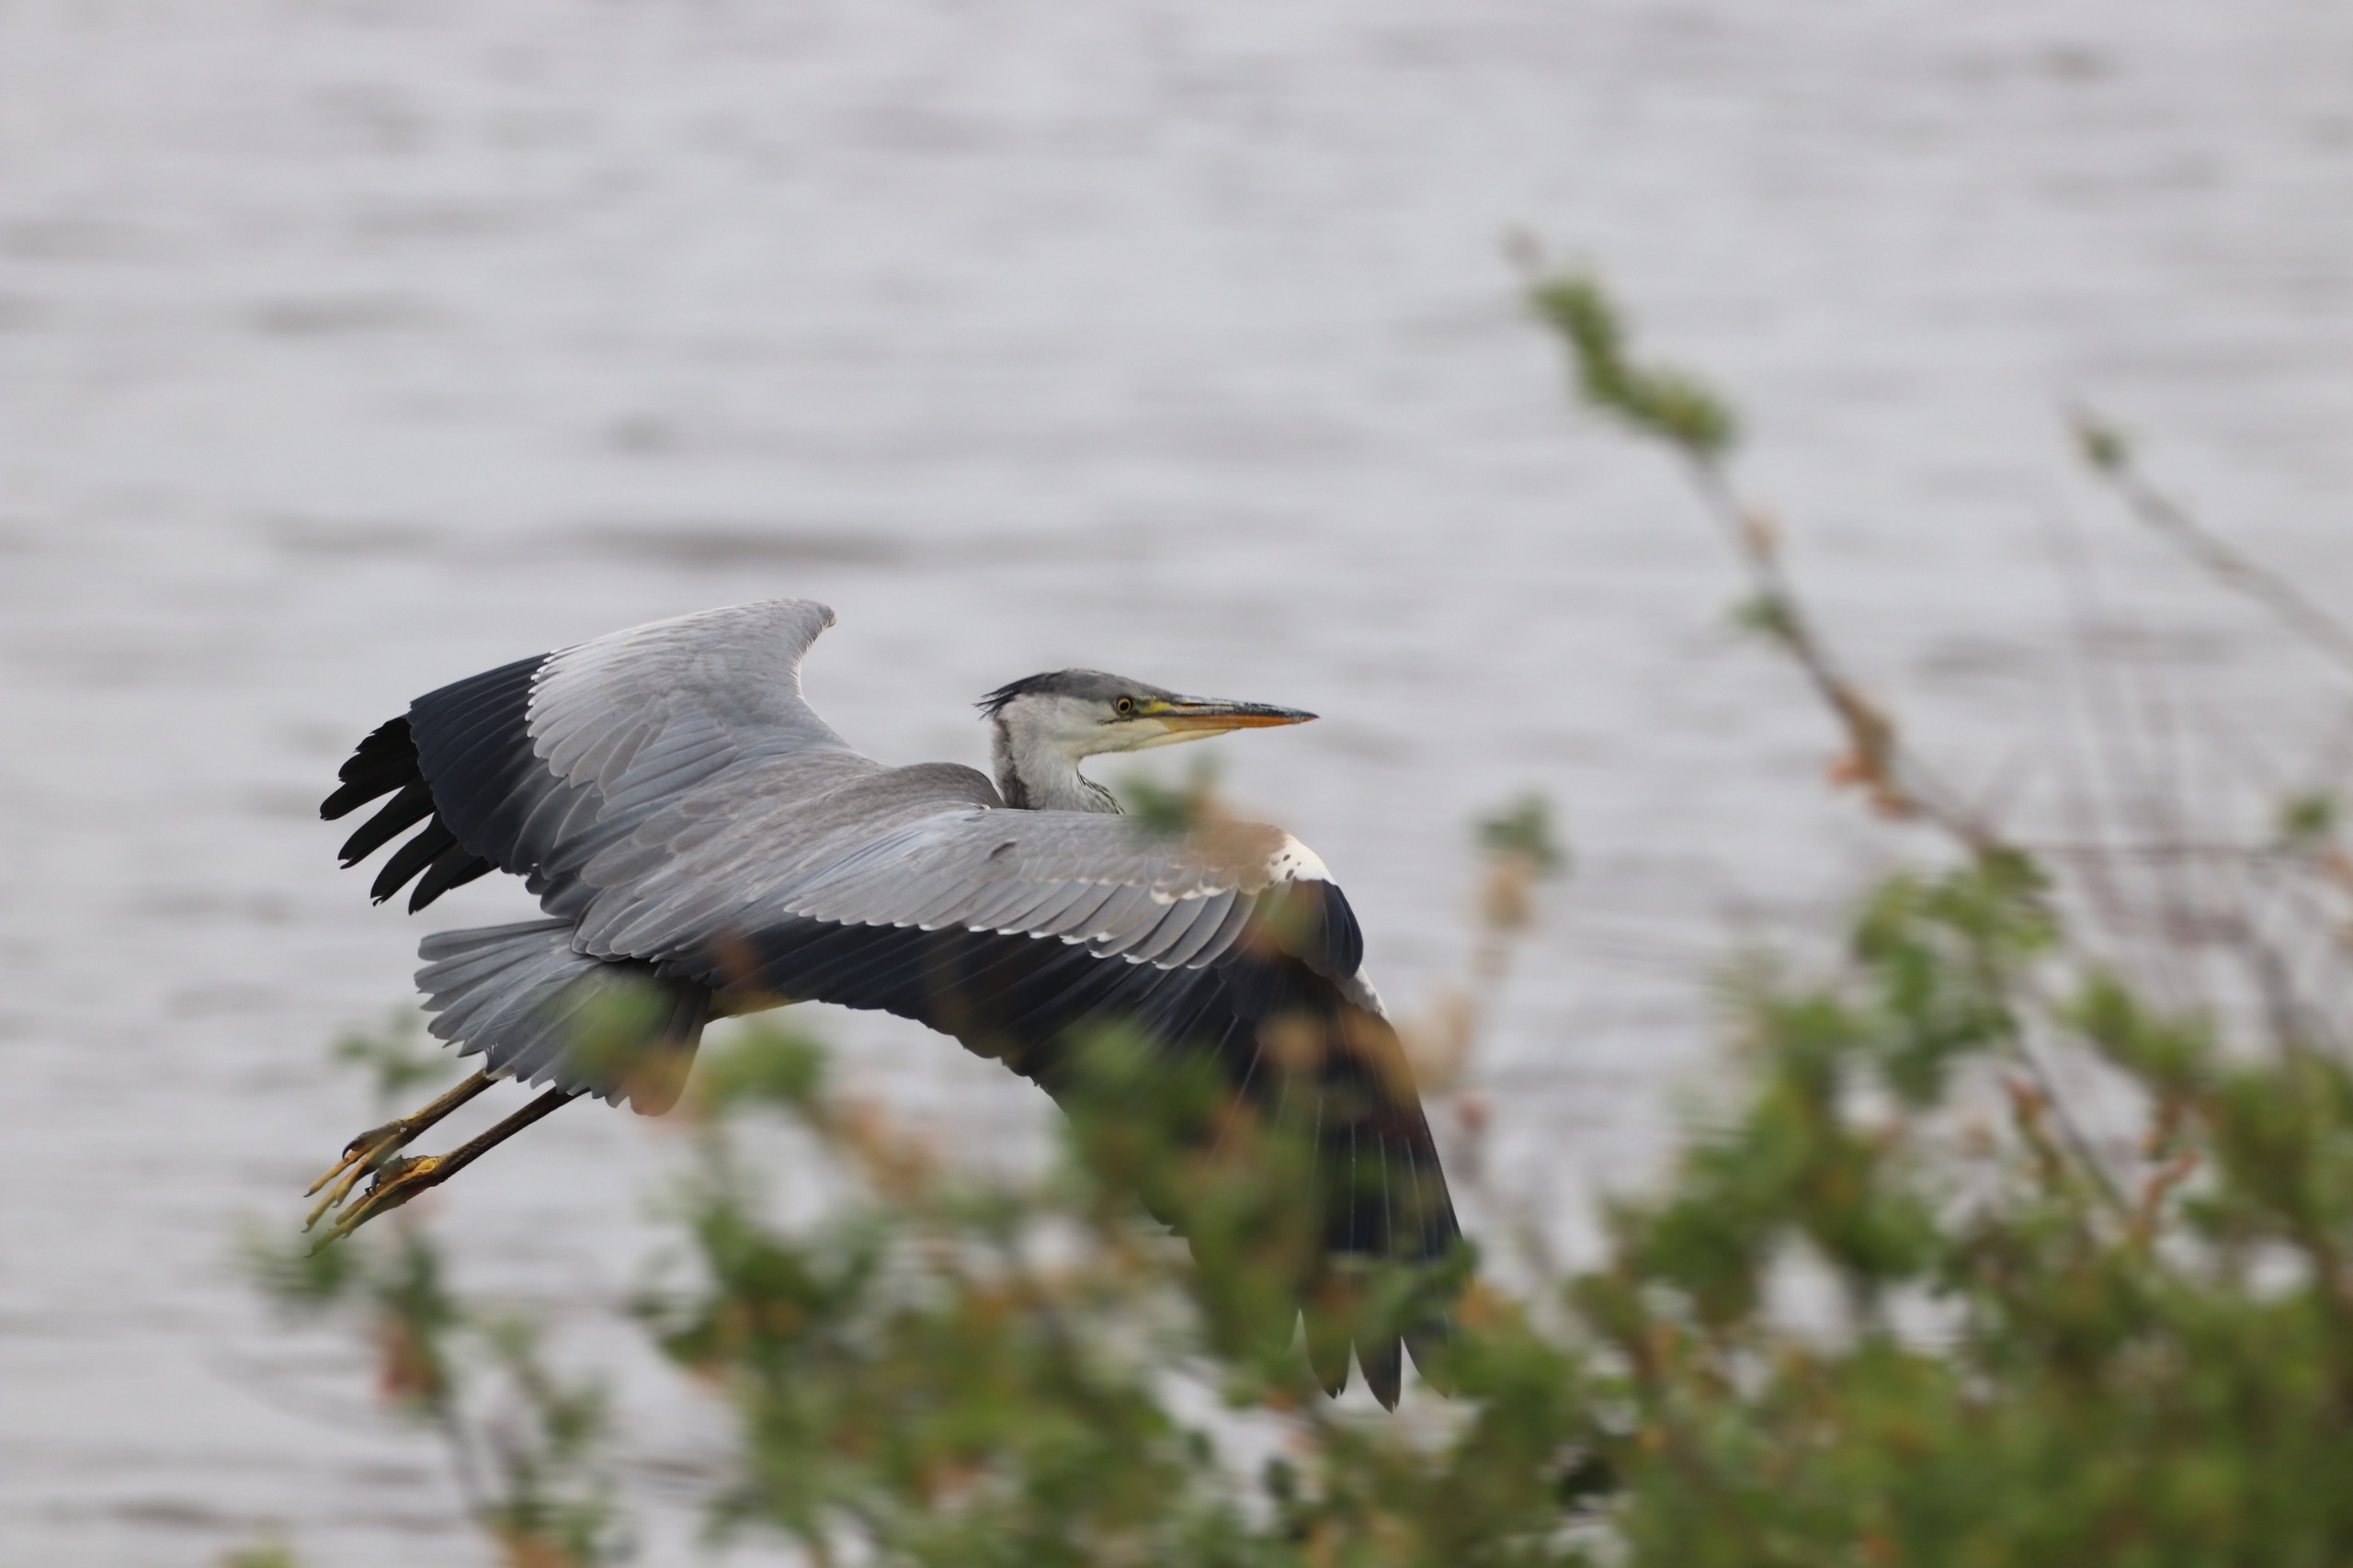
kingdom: Animalia
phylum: Chordata
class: Aves
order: Pelecaniformes
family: Ardeidae
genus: Ardea
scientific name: Ardea cinerea
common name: Fiskehejre
